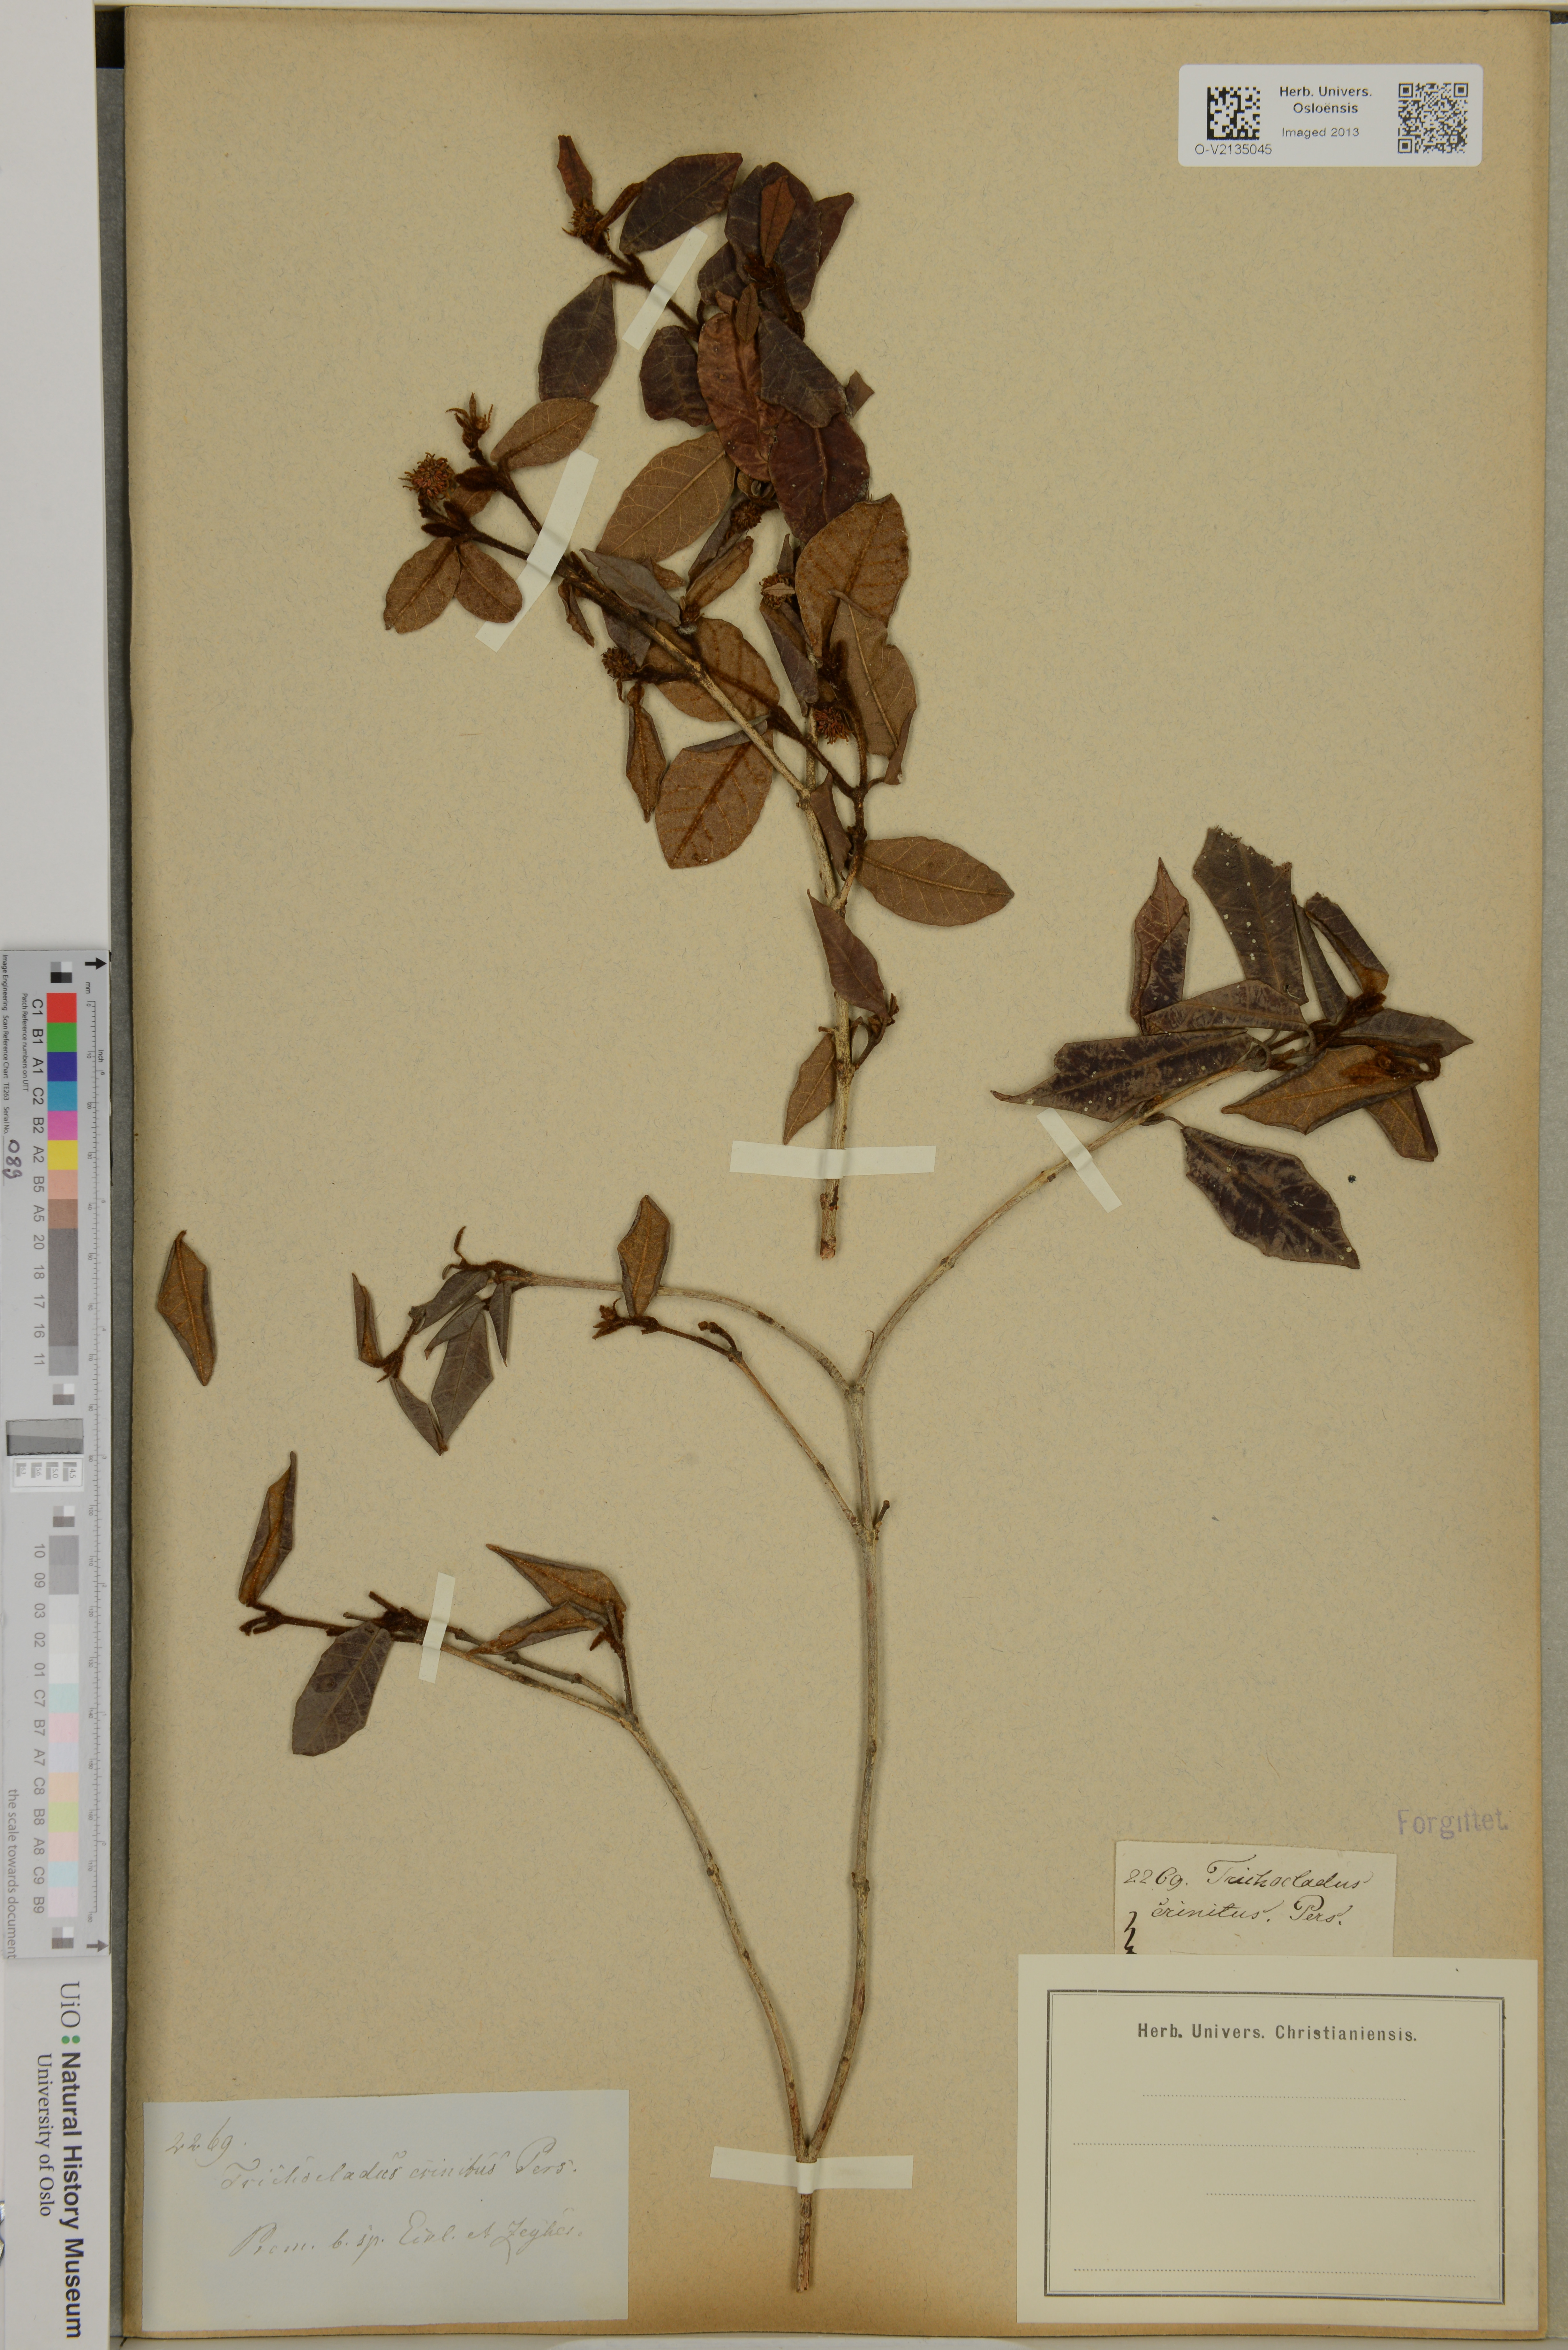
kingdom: Plantae
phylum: Tracheophyta
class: Magnoliopsida
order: Saxifragales
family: Hamamelidaceae
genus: Trichocladus
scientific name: Trichocladus crinitus
